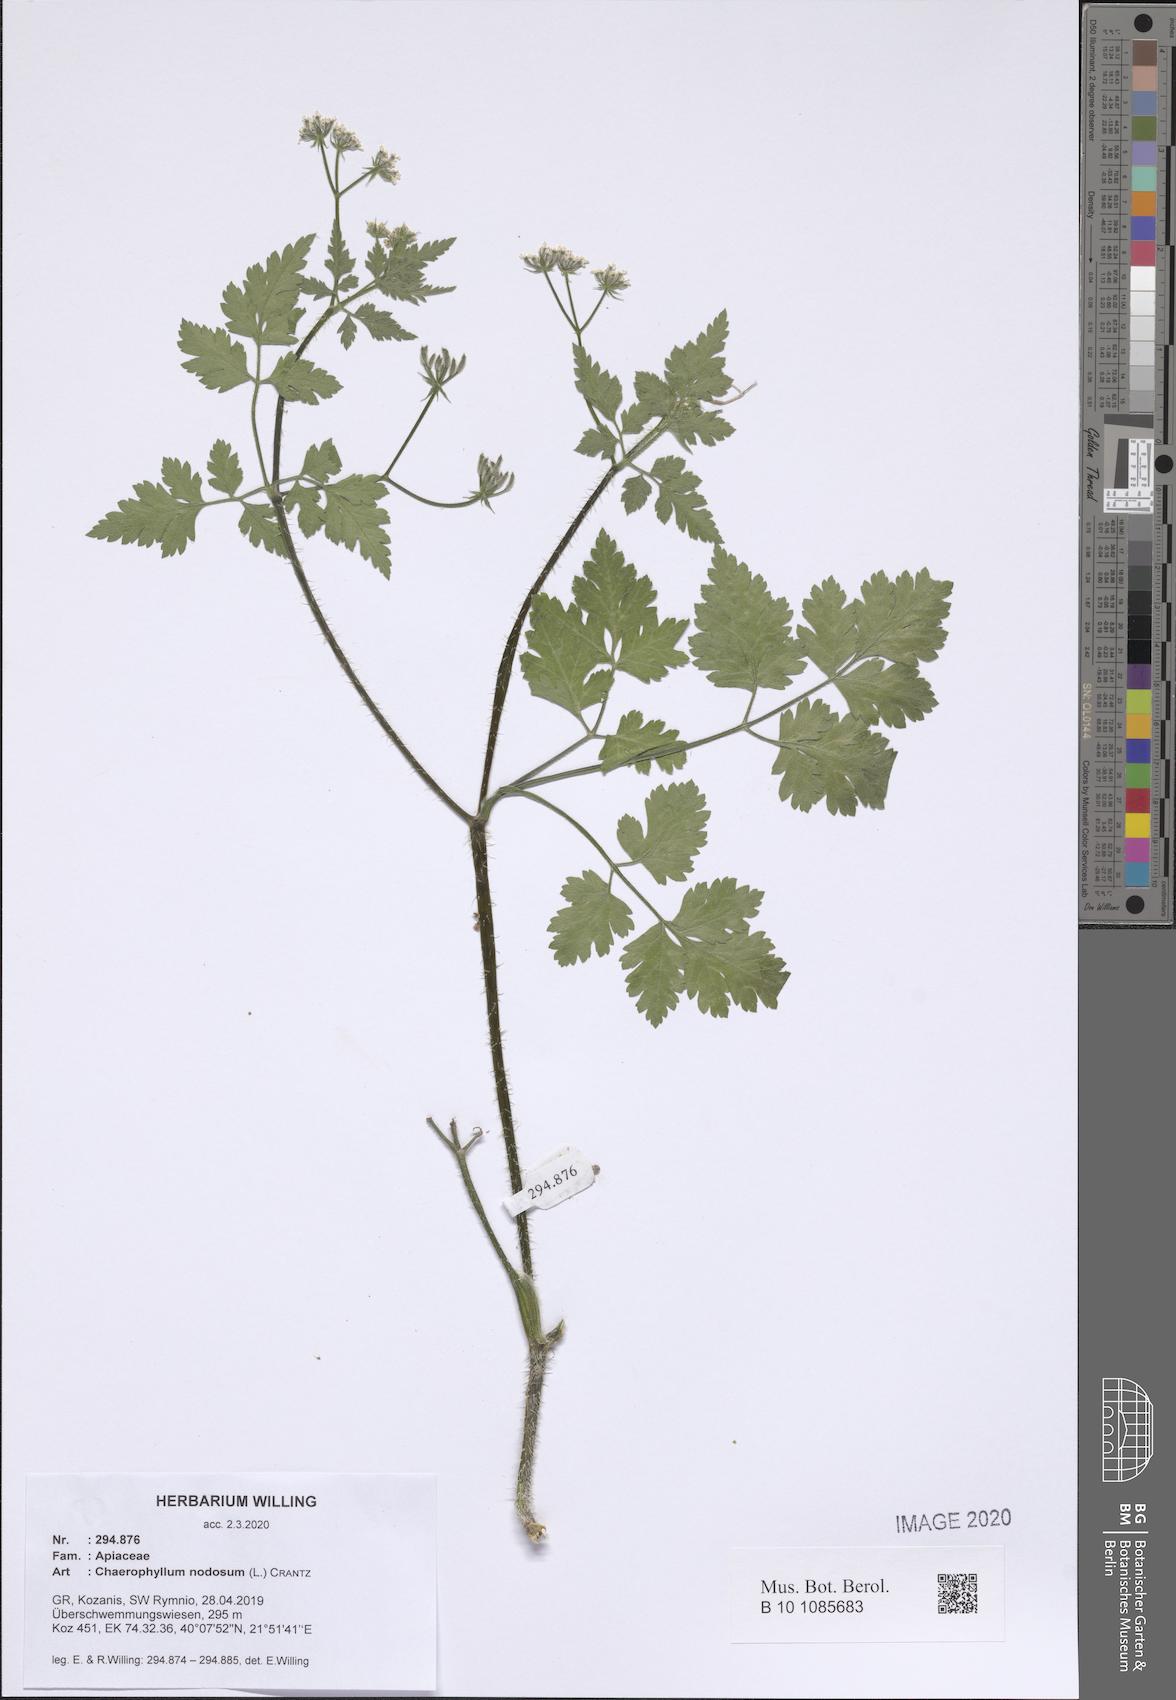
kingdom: Plantae
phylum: Tracheophyta
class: Magnoliopsida
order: Apiales
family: Apiaceae
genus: Chaerophyllum
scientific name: Chaerophyllum nodosum
